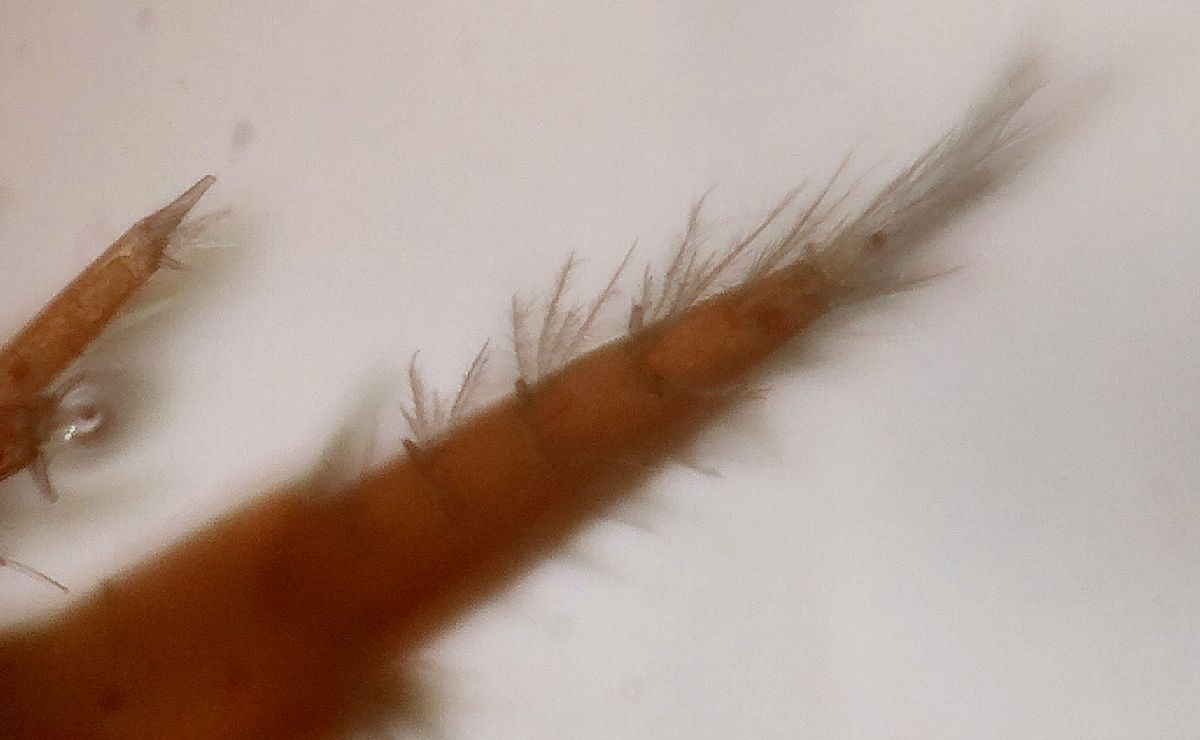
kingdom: Animalia
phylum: Arthropoda
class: Malacostraca
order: Amphipoda
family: Gammaridae
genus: Gammarus
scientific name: Gammarus setosus
